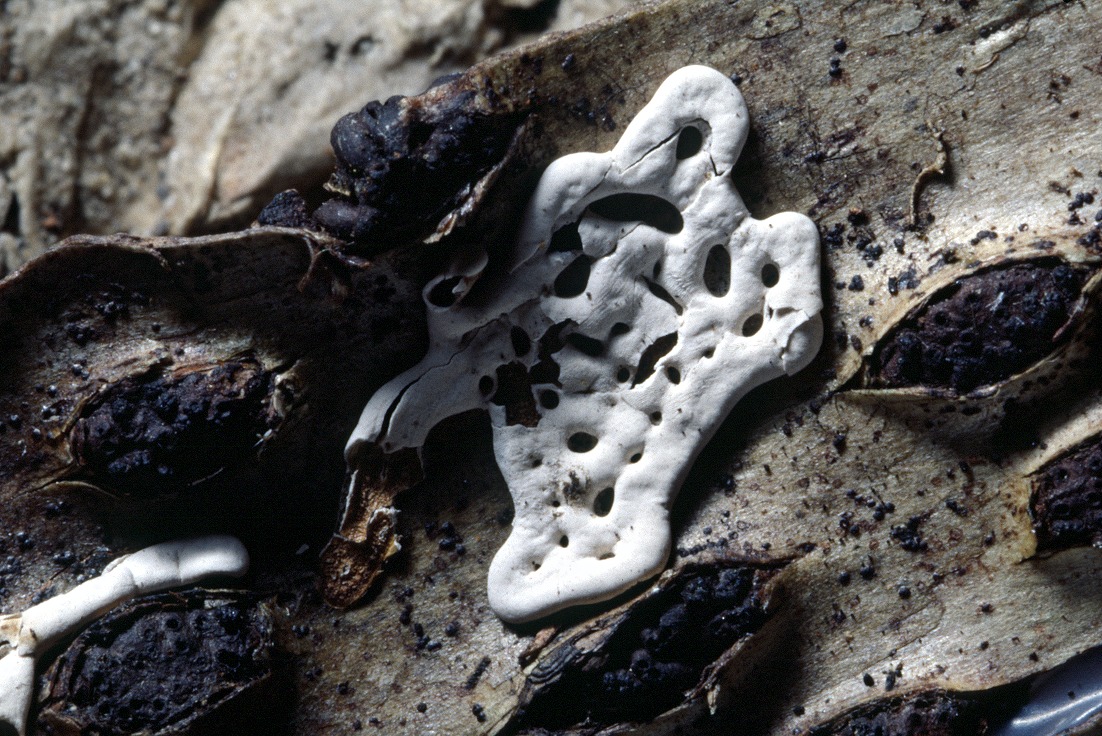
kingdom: Protozoa
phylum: Mycetozoa
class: Myxomycetes
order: Physarales
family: Didymiaceae
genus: Diderma
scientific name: Diderma deplanatum
